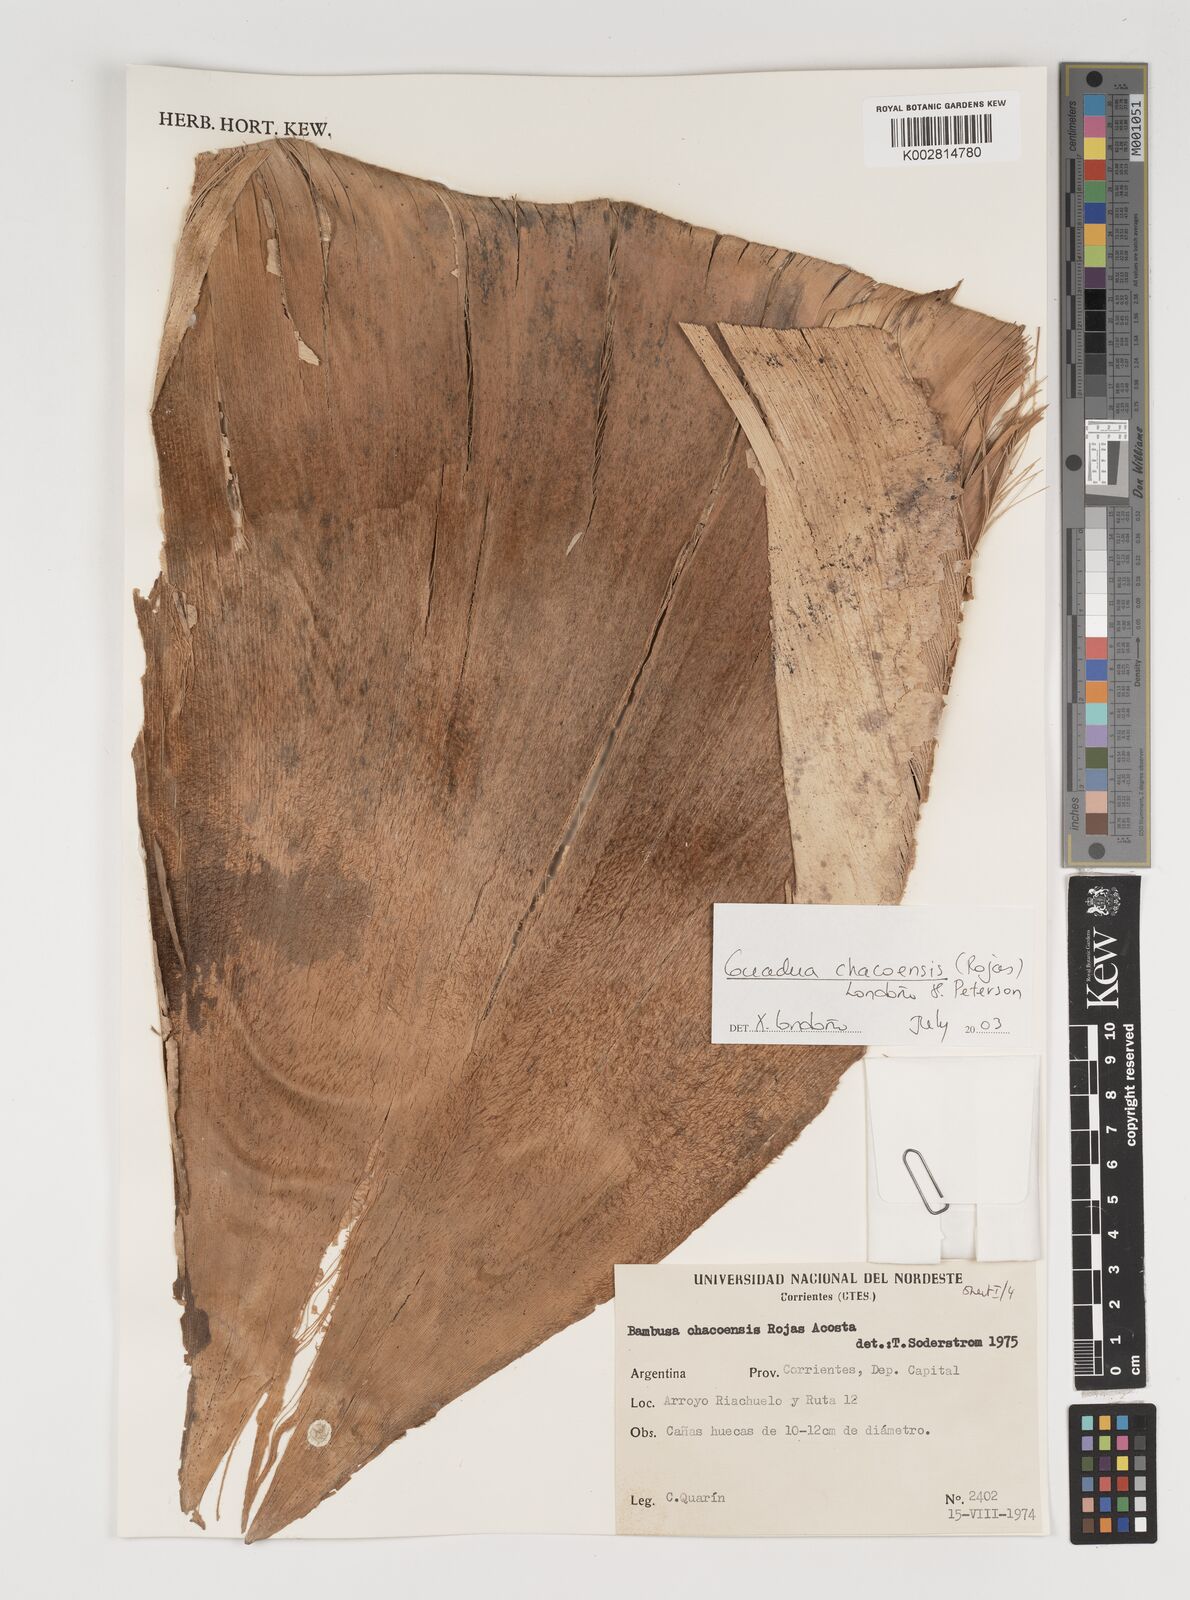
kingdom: Plantae
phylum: Tracheophyta
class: Liliopsida
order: Poales
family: Poaceae
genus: Guadua
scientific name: Guadua chacoensis
